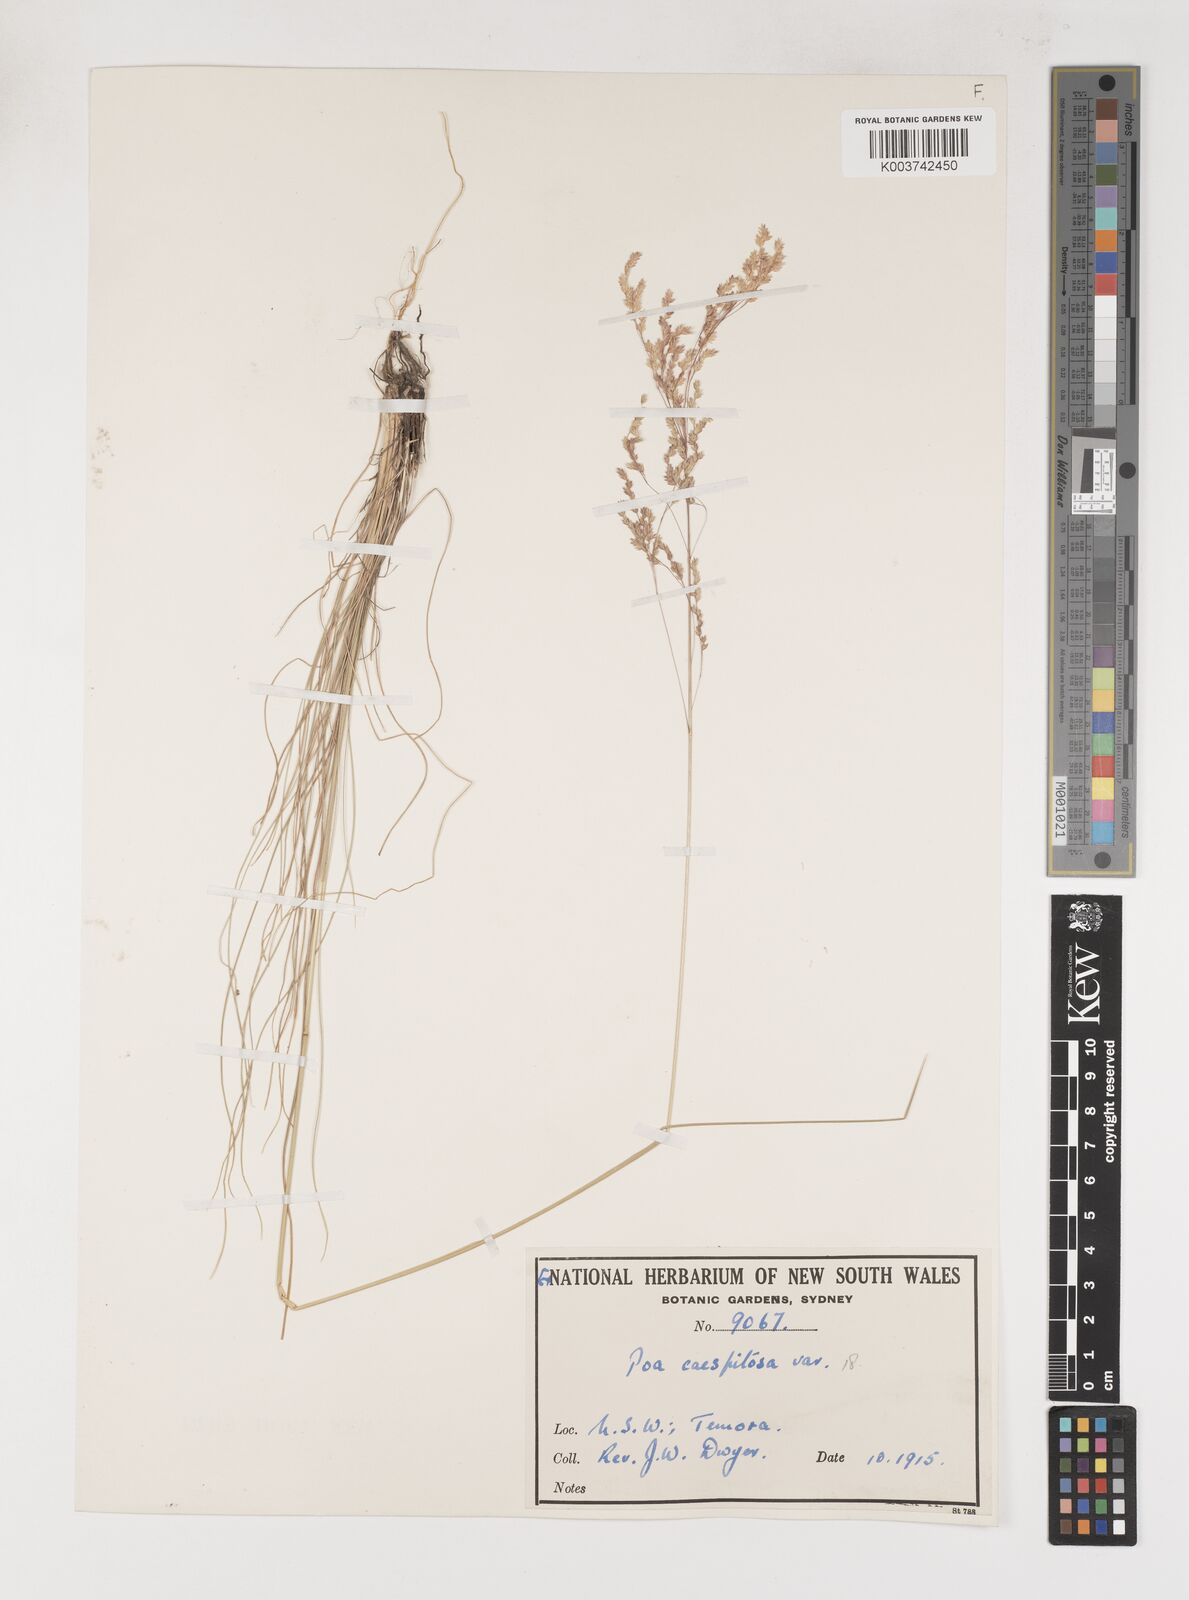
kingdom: Plantae
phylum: Tracheophyta
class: Liliopsida
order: Poales
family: Poaceae
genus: Poa
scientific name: Poa
